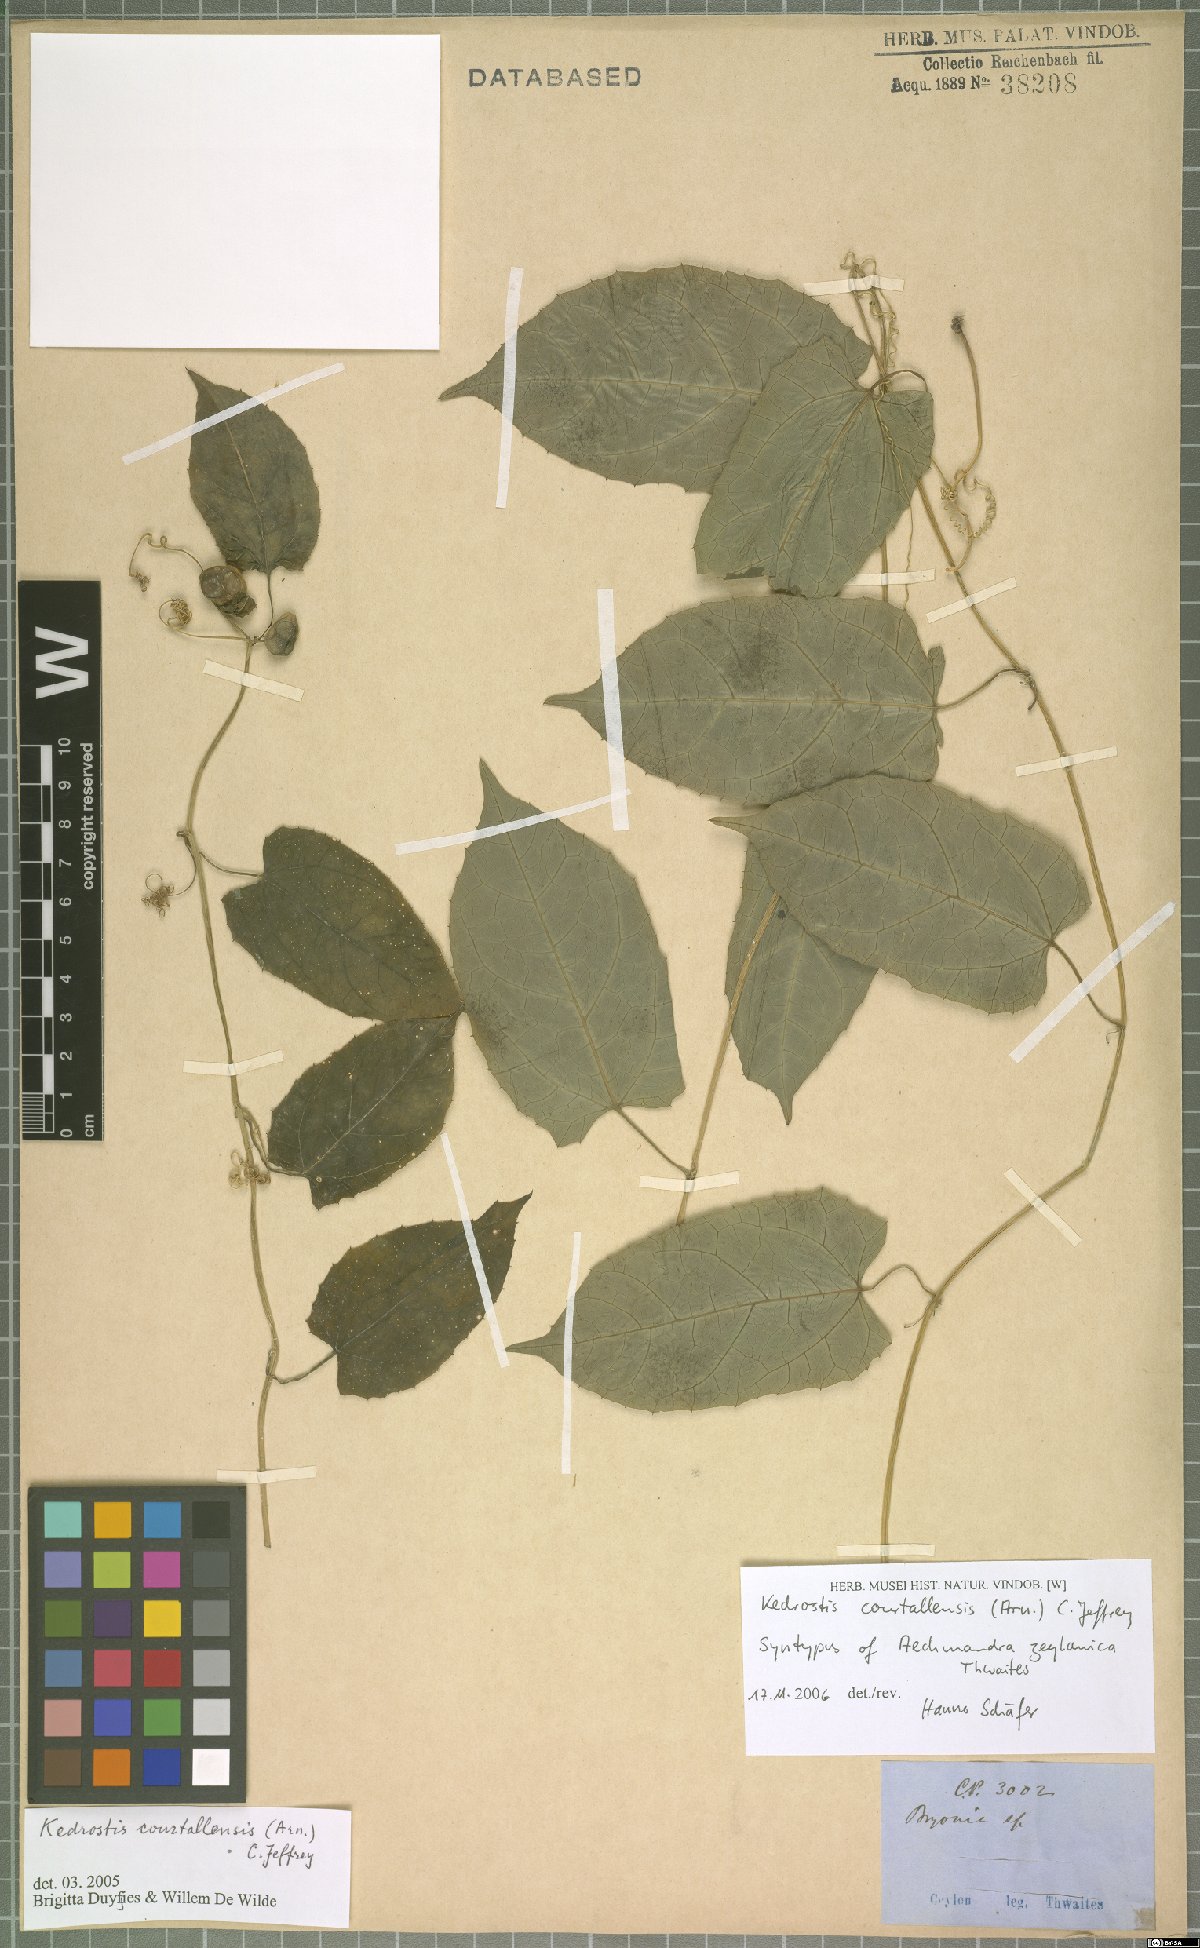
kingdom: Plantae
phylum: Tracheophyta
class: Magnoliopsida
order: Cucurbitales
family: Cucurbitaceae
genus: Kedrostis
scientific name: Kedrostis courtallensis
